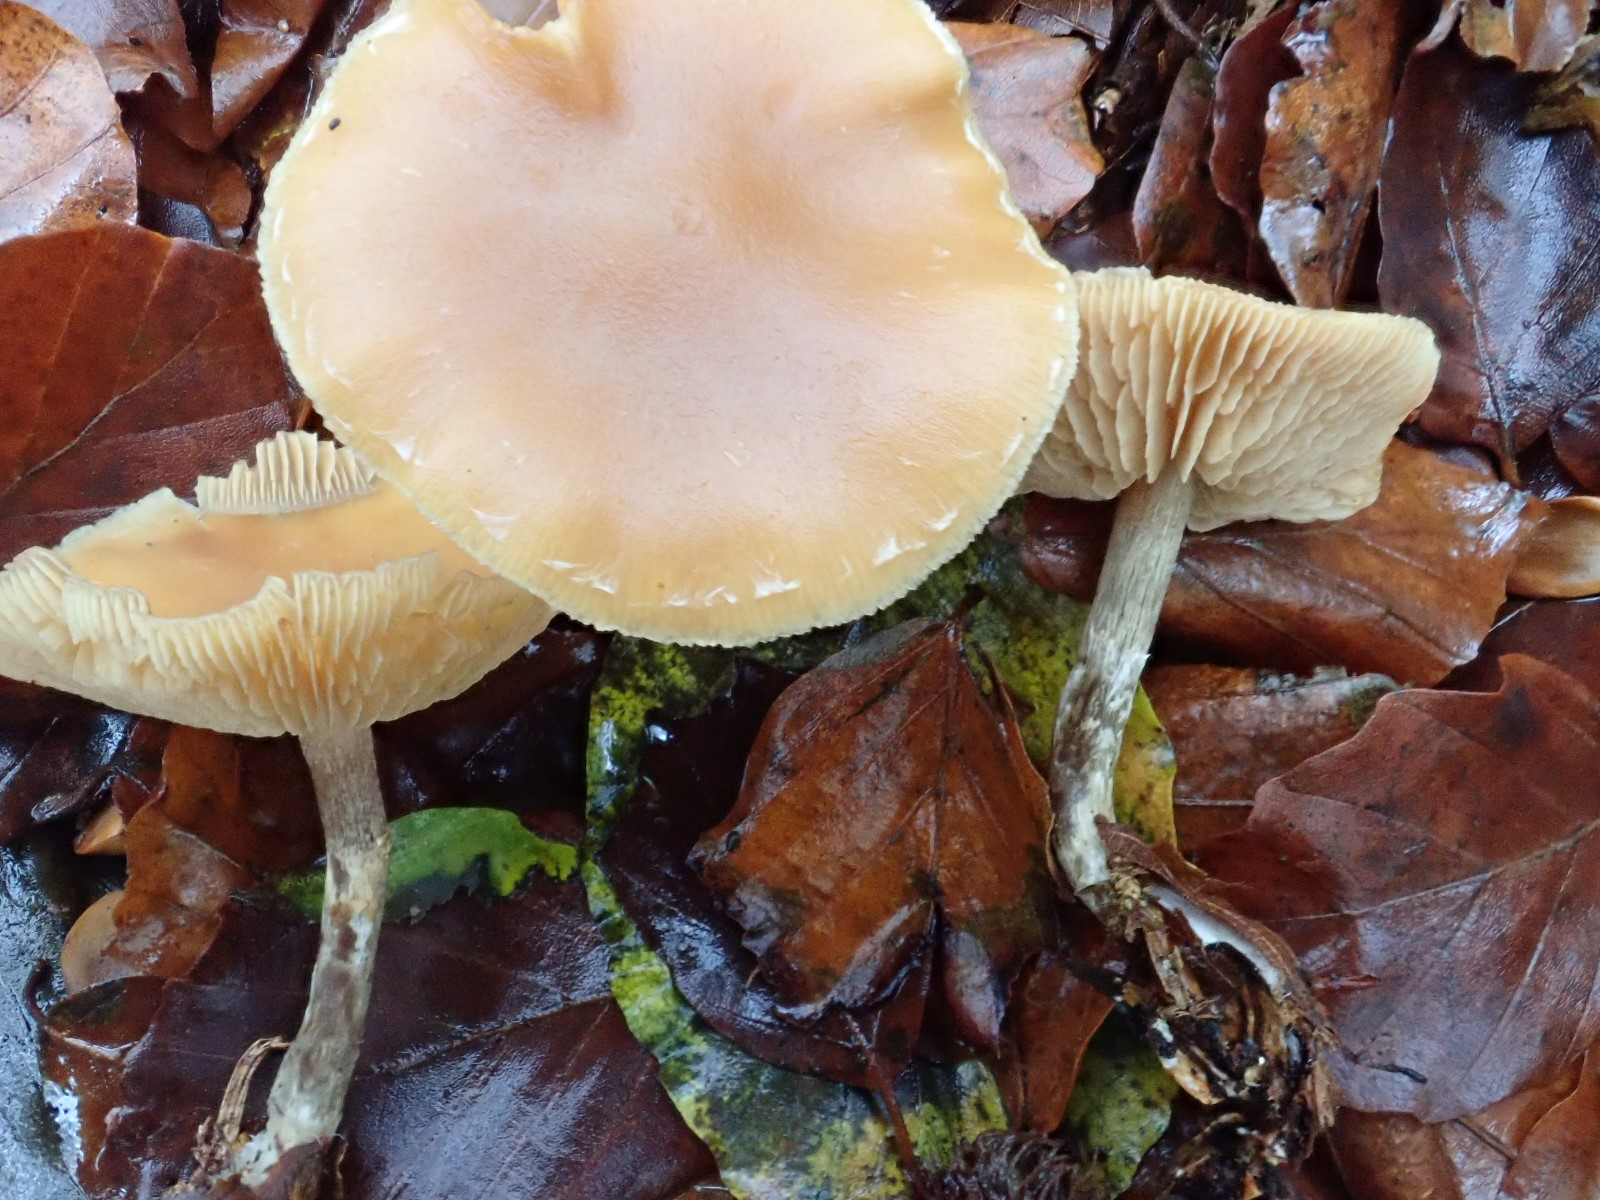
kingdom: Fungi
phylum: Basidiomycota
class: Agaricomycetes
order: Agaricales
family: Hymenogastraceae
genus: Galerina
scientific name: Galerina sideroides
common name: træflis-hjelmhat
